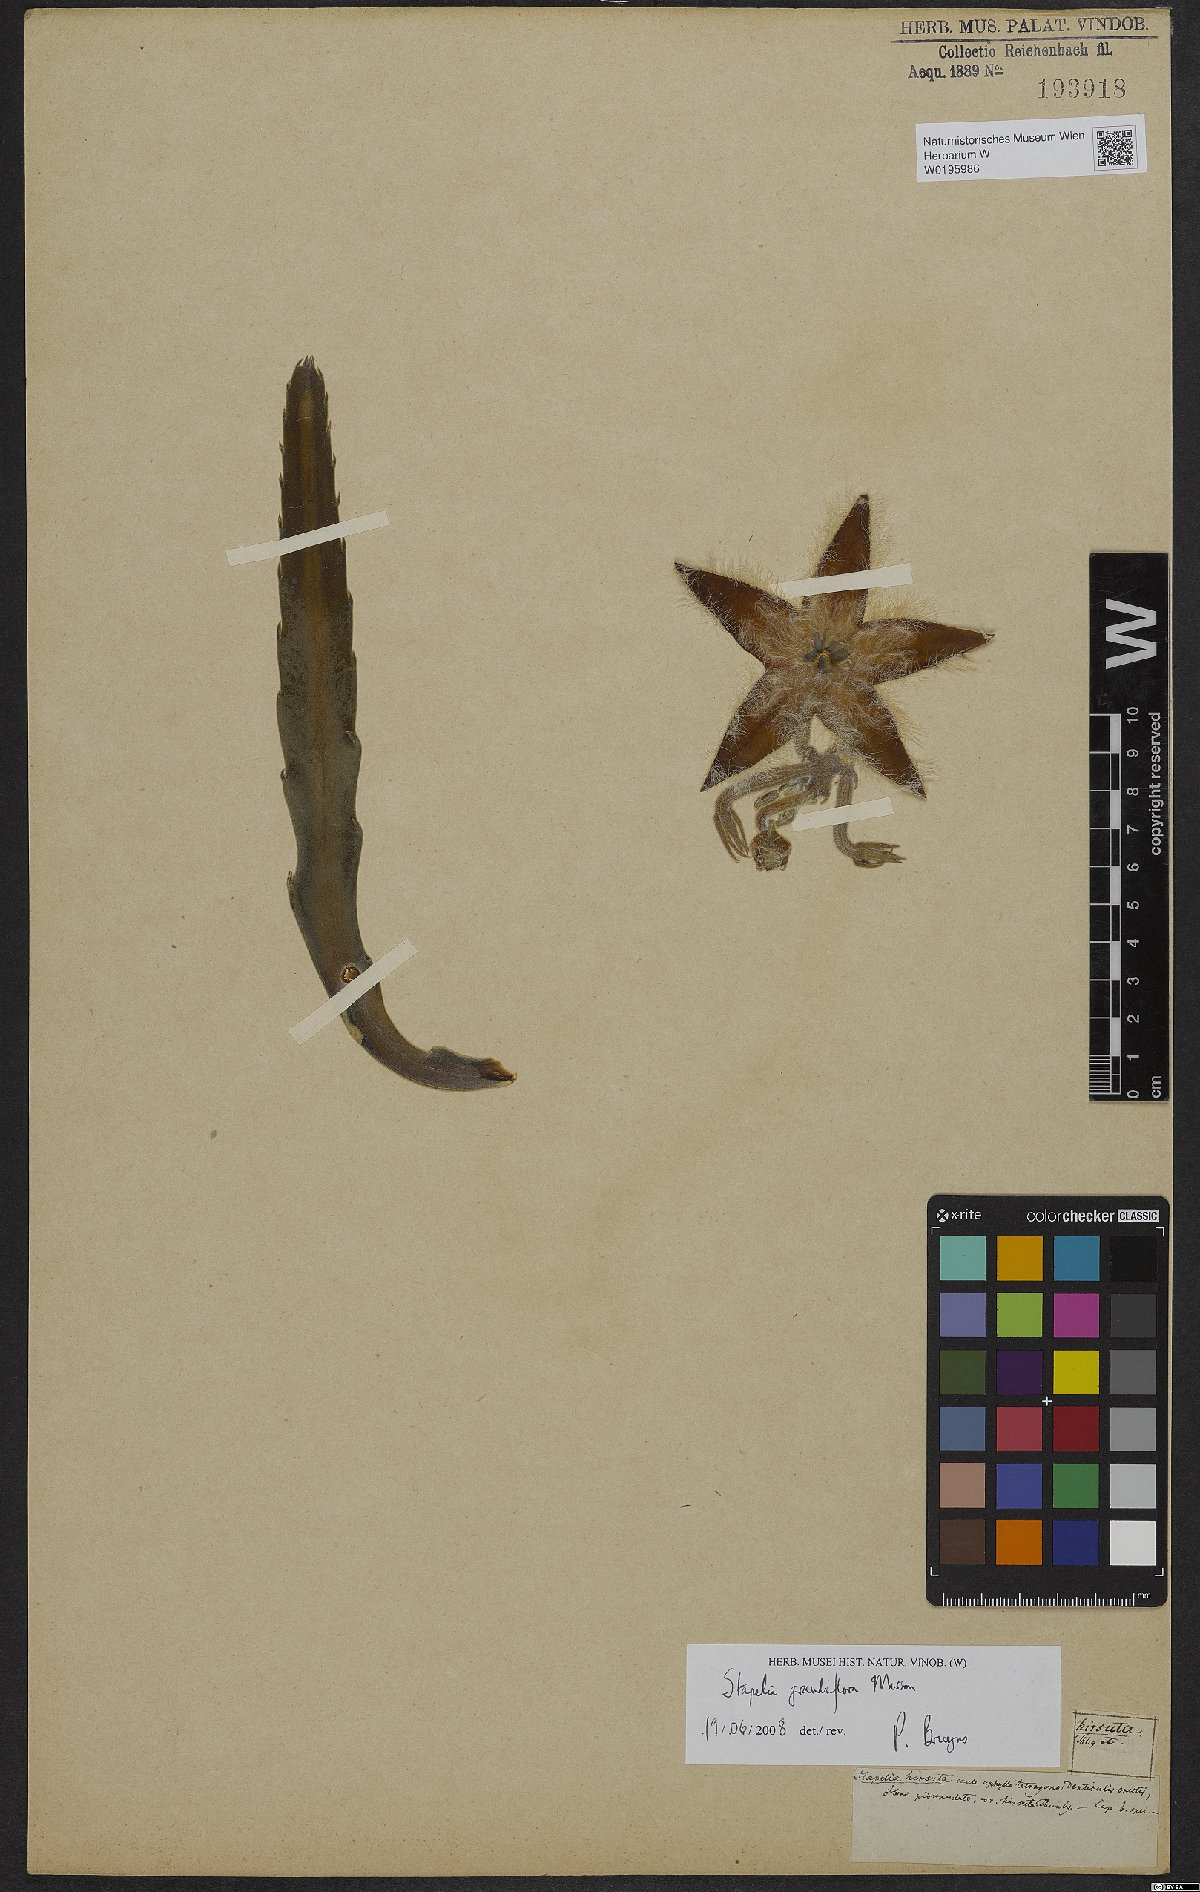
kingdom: Plantae
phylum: Tracheophyta
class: Magnoliopsida
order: Gentianales
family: Apocynaceae
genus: Ceropegia
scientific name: Ceropegia grandiflora
